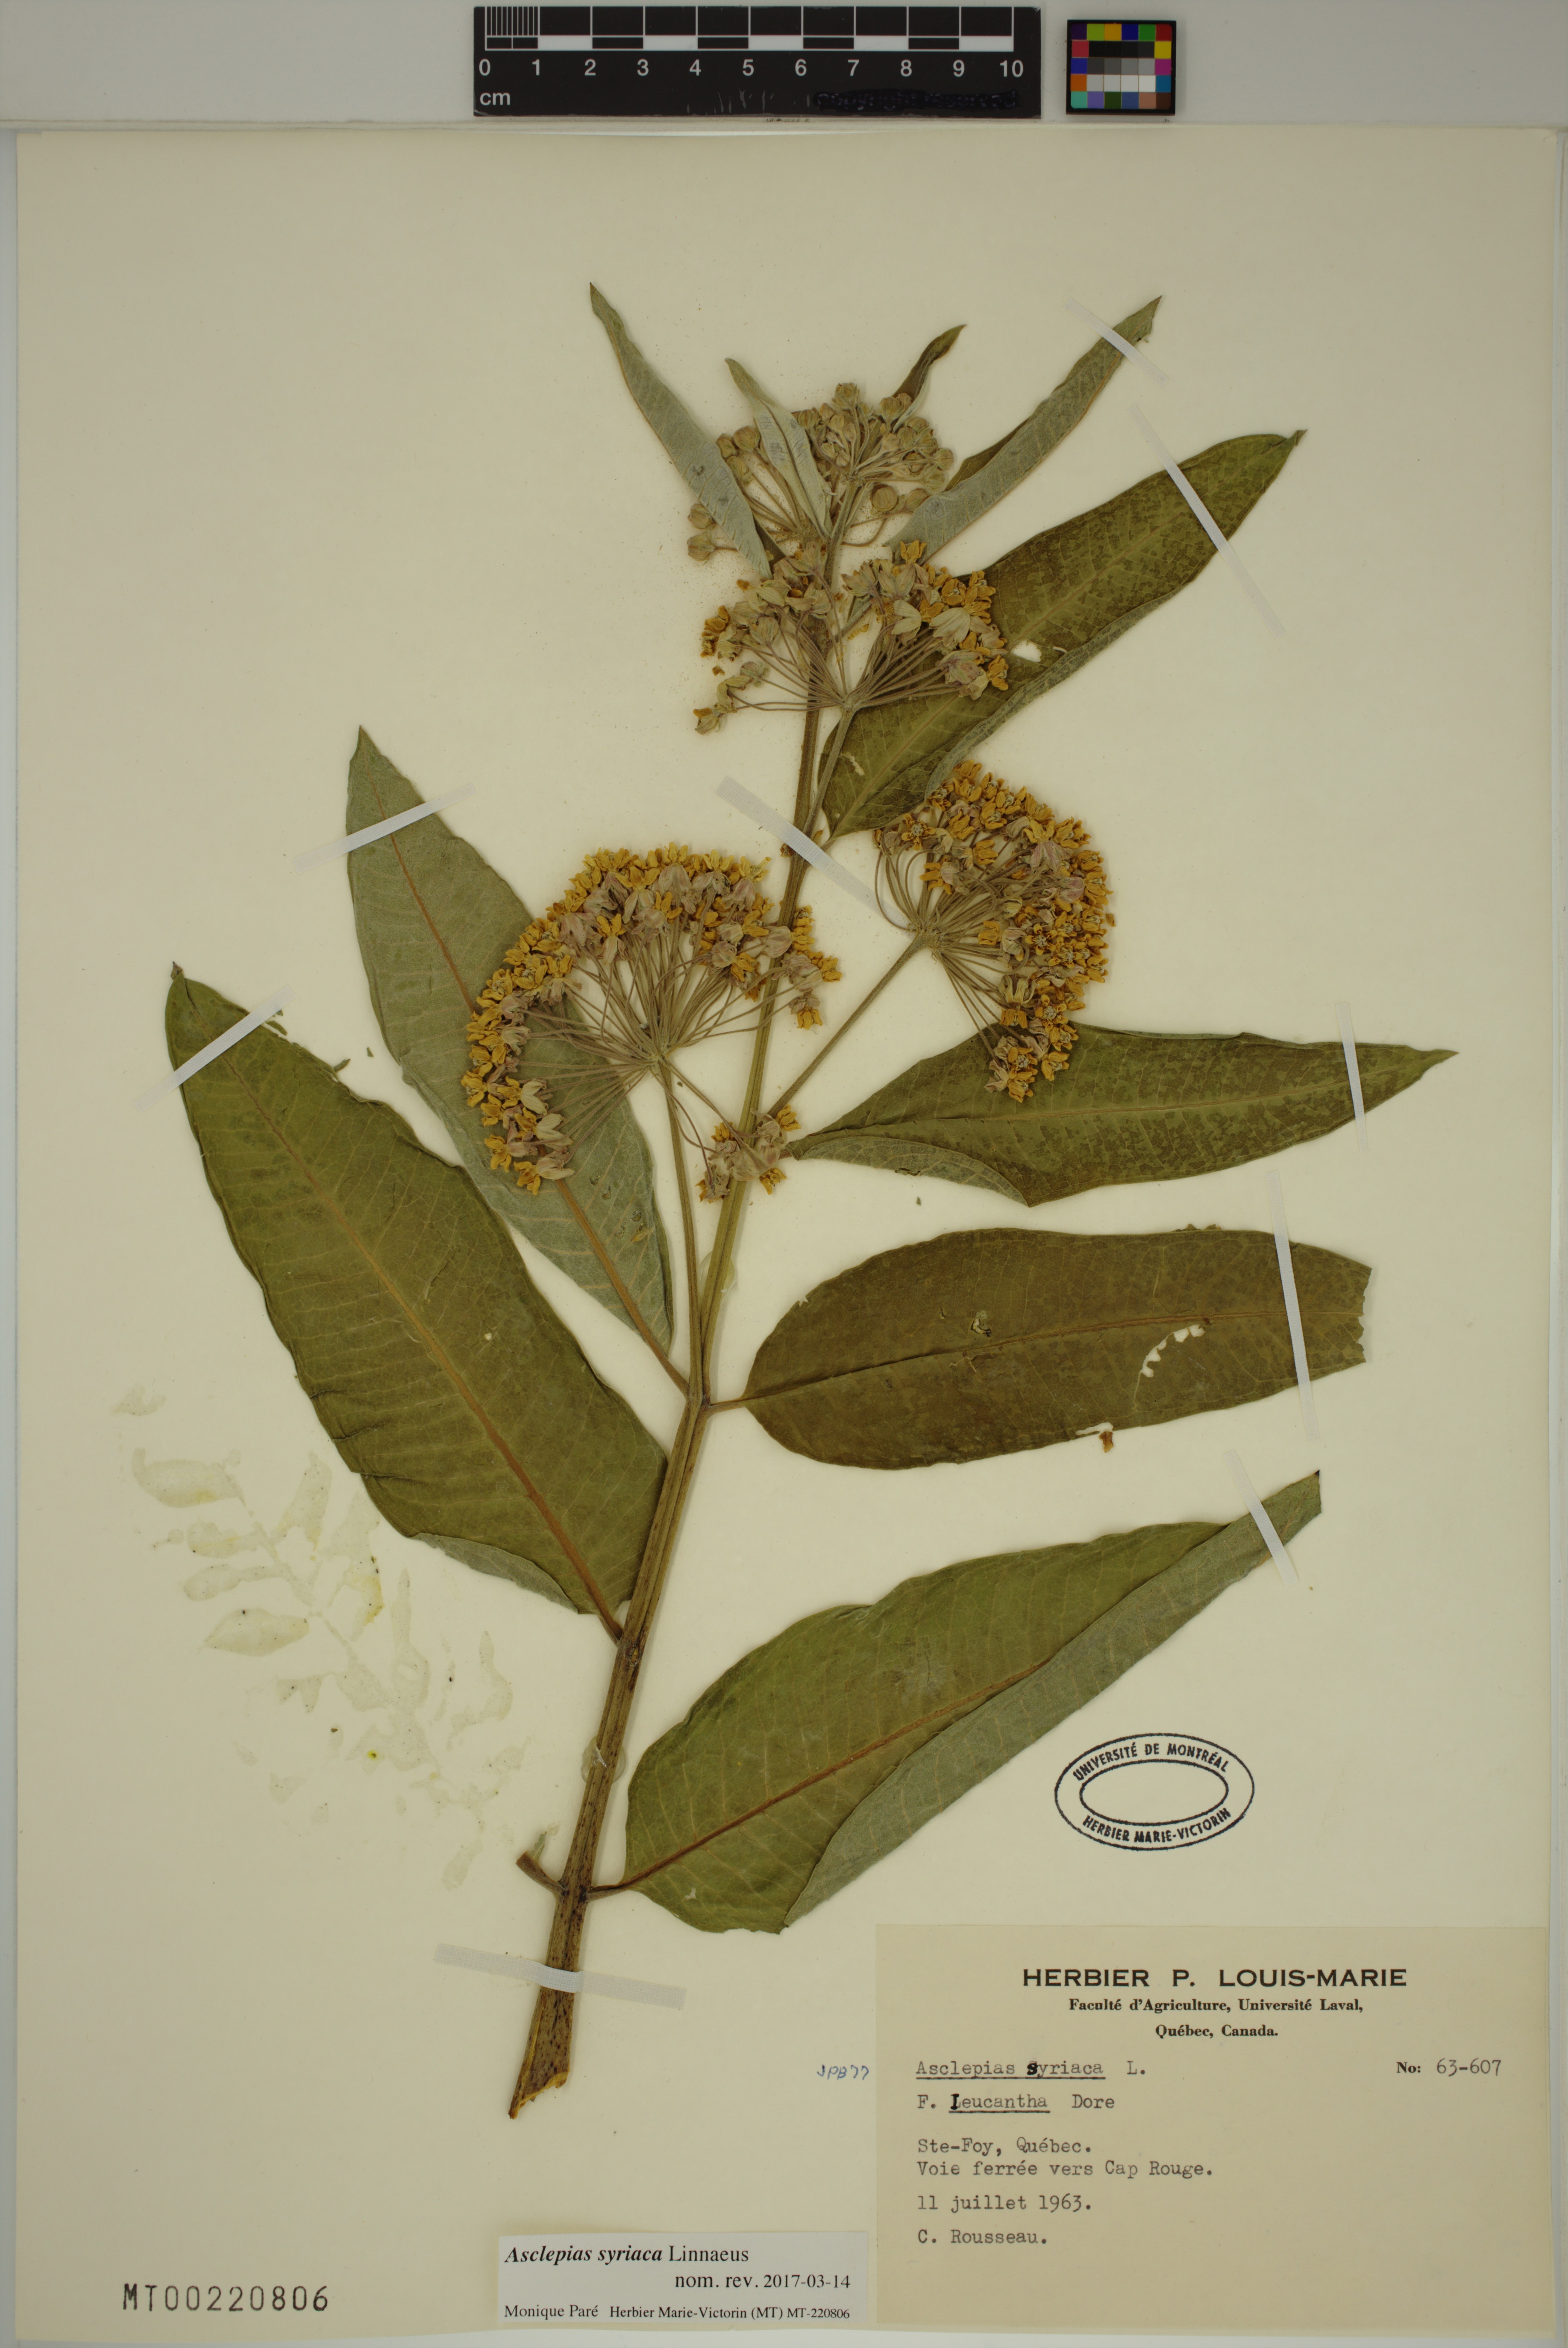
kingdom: Plantae
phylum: Tracheophyta
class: Magnoliopsida
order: Gentianales
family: Apocynaceae
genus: Asclepias
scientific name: Asclepias syriaca
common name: Common milkweed
